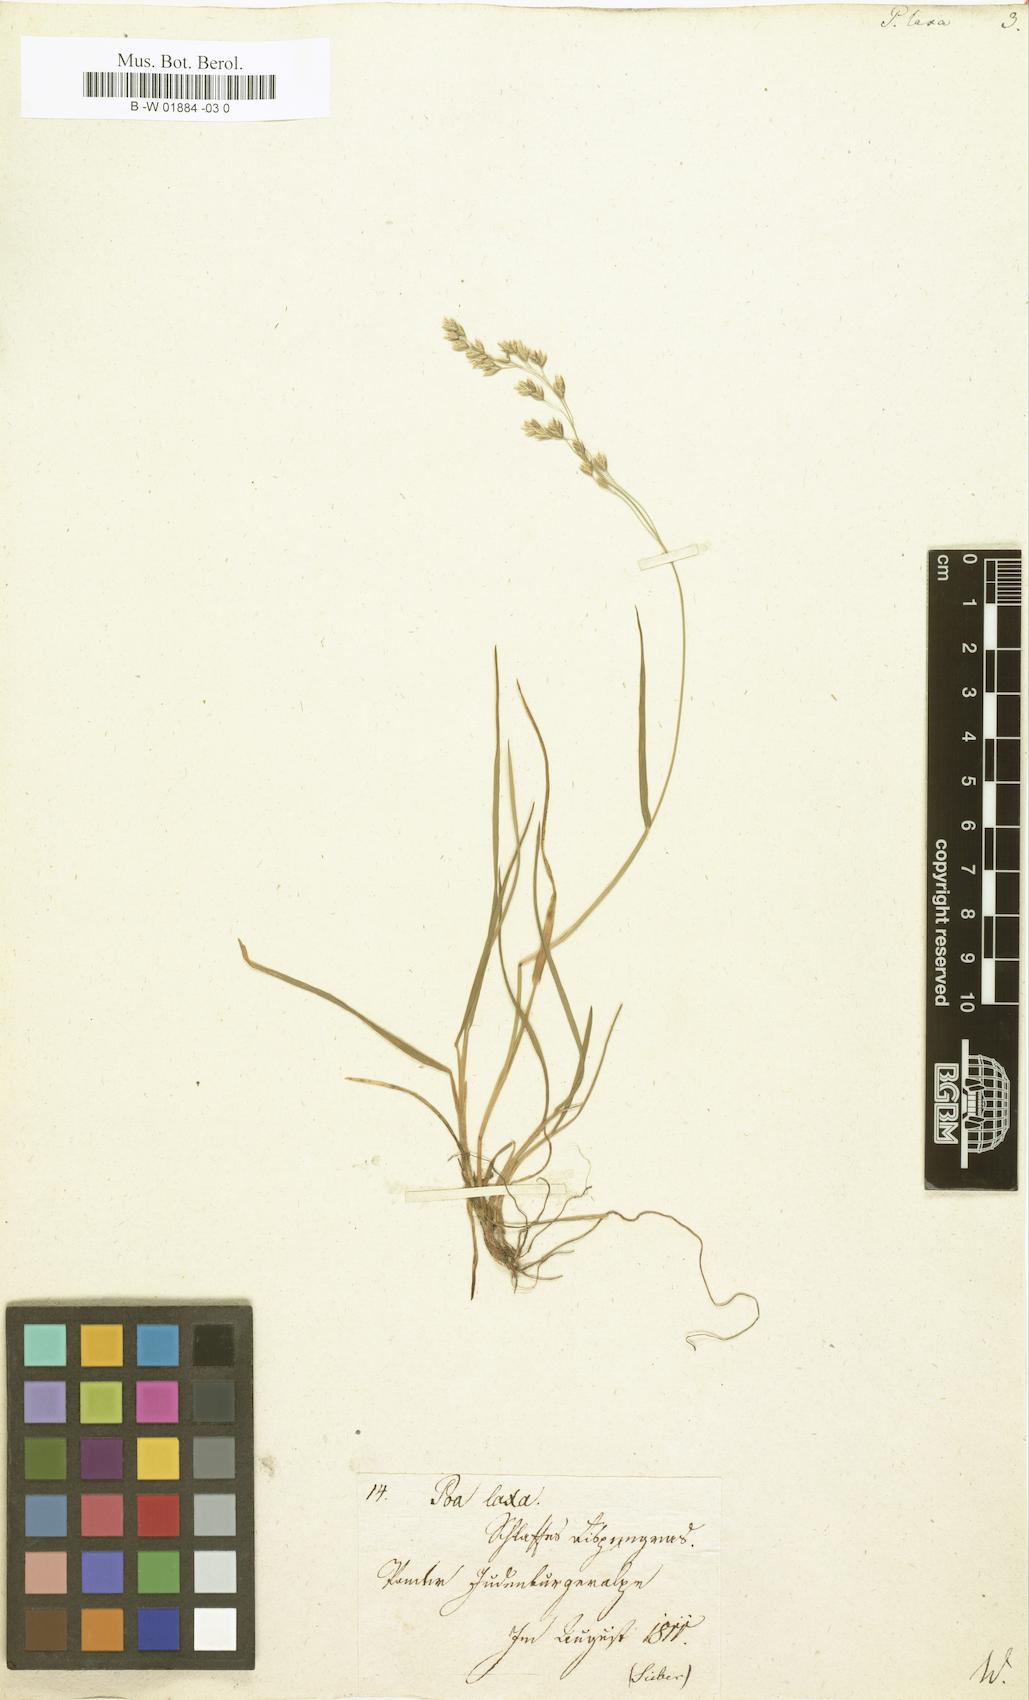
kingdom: Plantae
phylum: Tracheophyta
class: Liliopsida
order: Poales
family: Poaceae
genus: Poa
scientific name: Poa laxa
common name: Lax bluegrass
